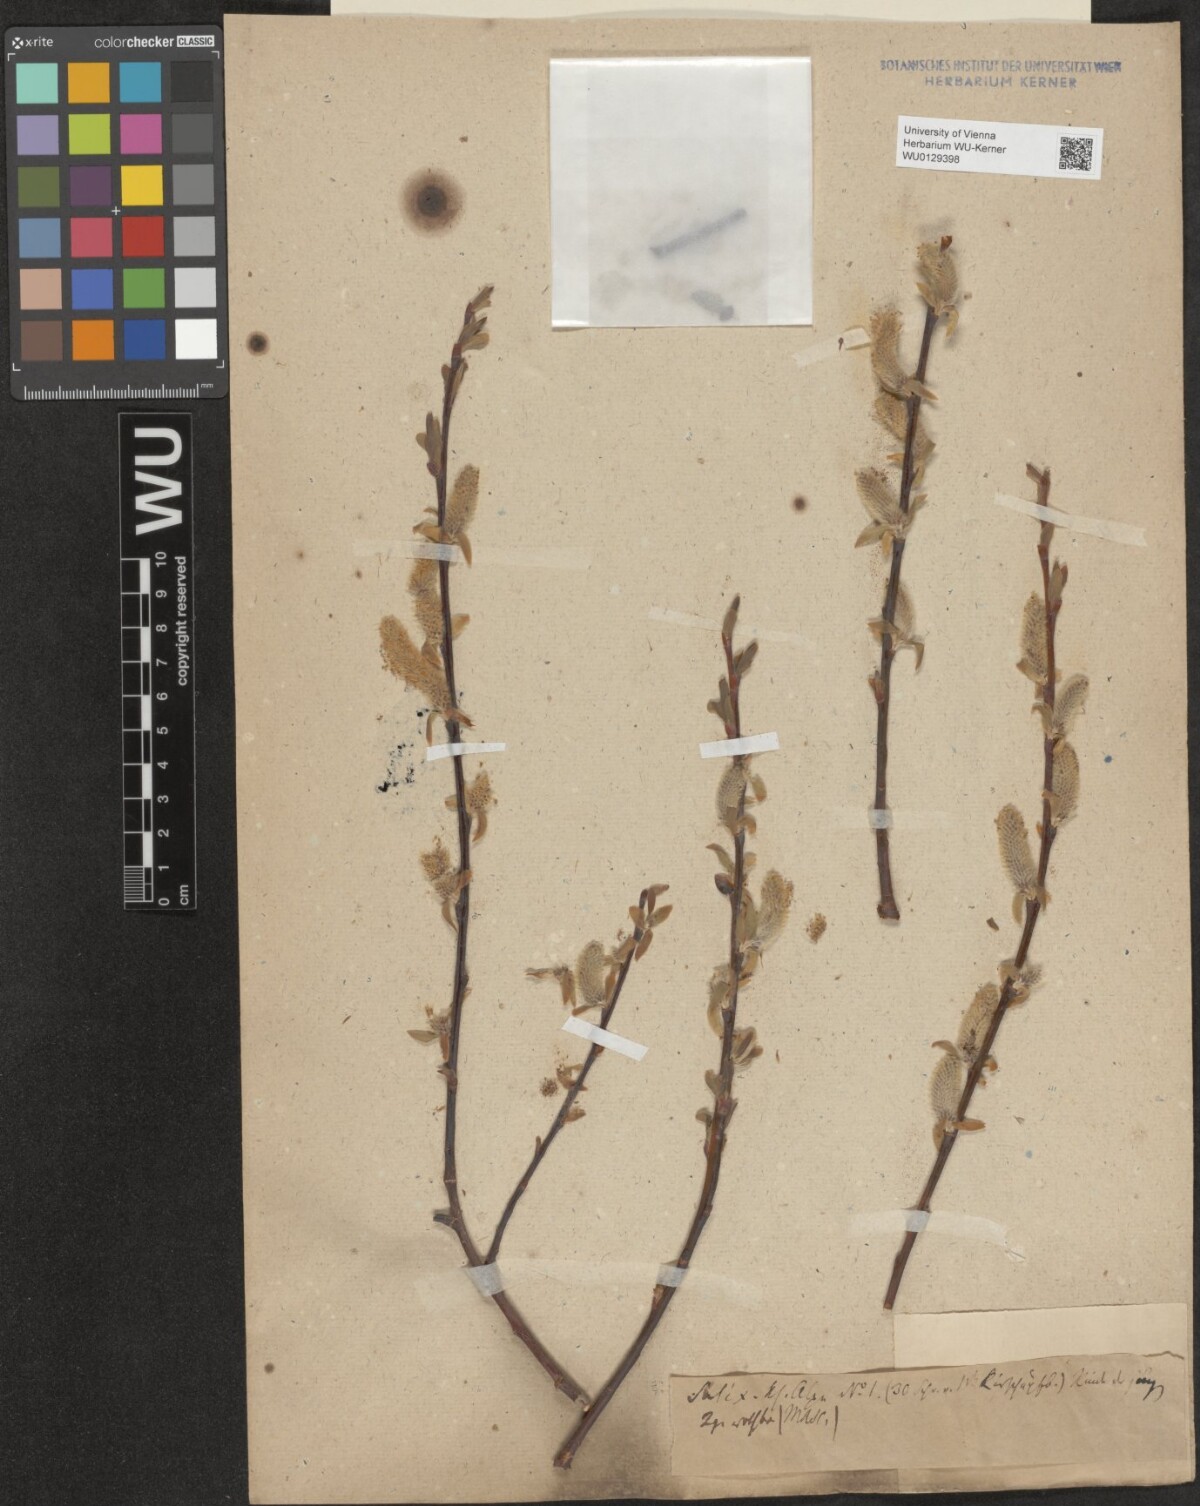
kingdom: Plantae
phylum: Tracheophyta
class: Magnoliopsida
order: Malpighiales
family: Salicaceae
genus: Salix
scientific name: Salix hastata
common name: Halberd willow
